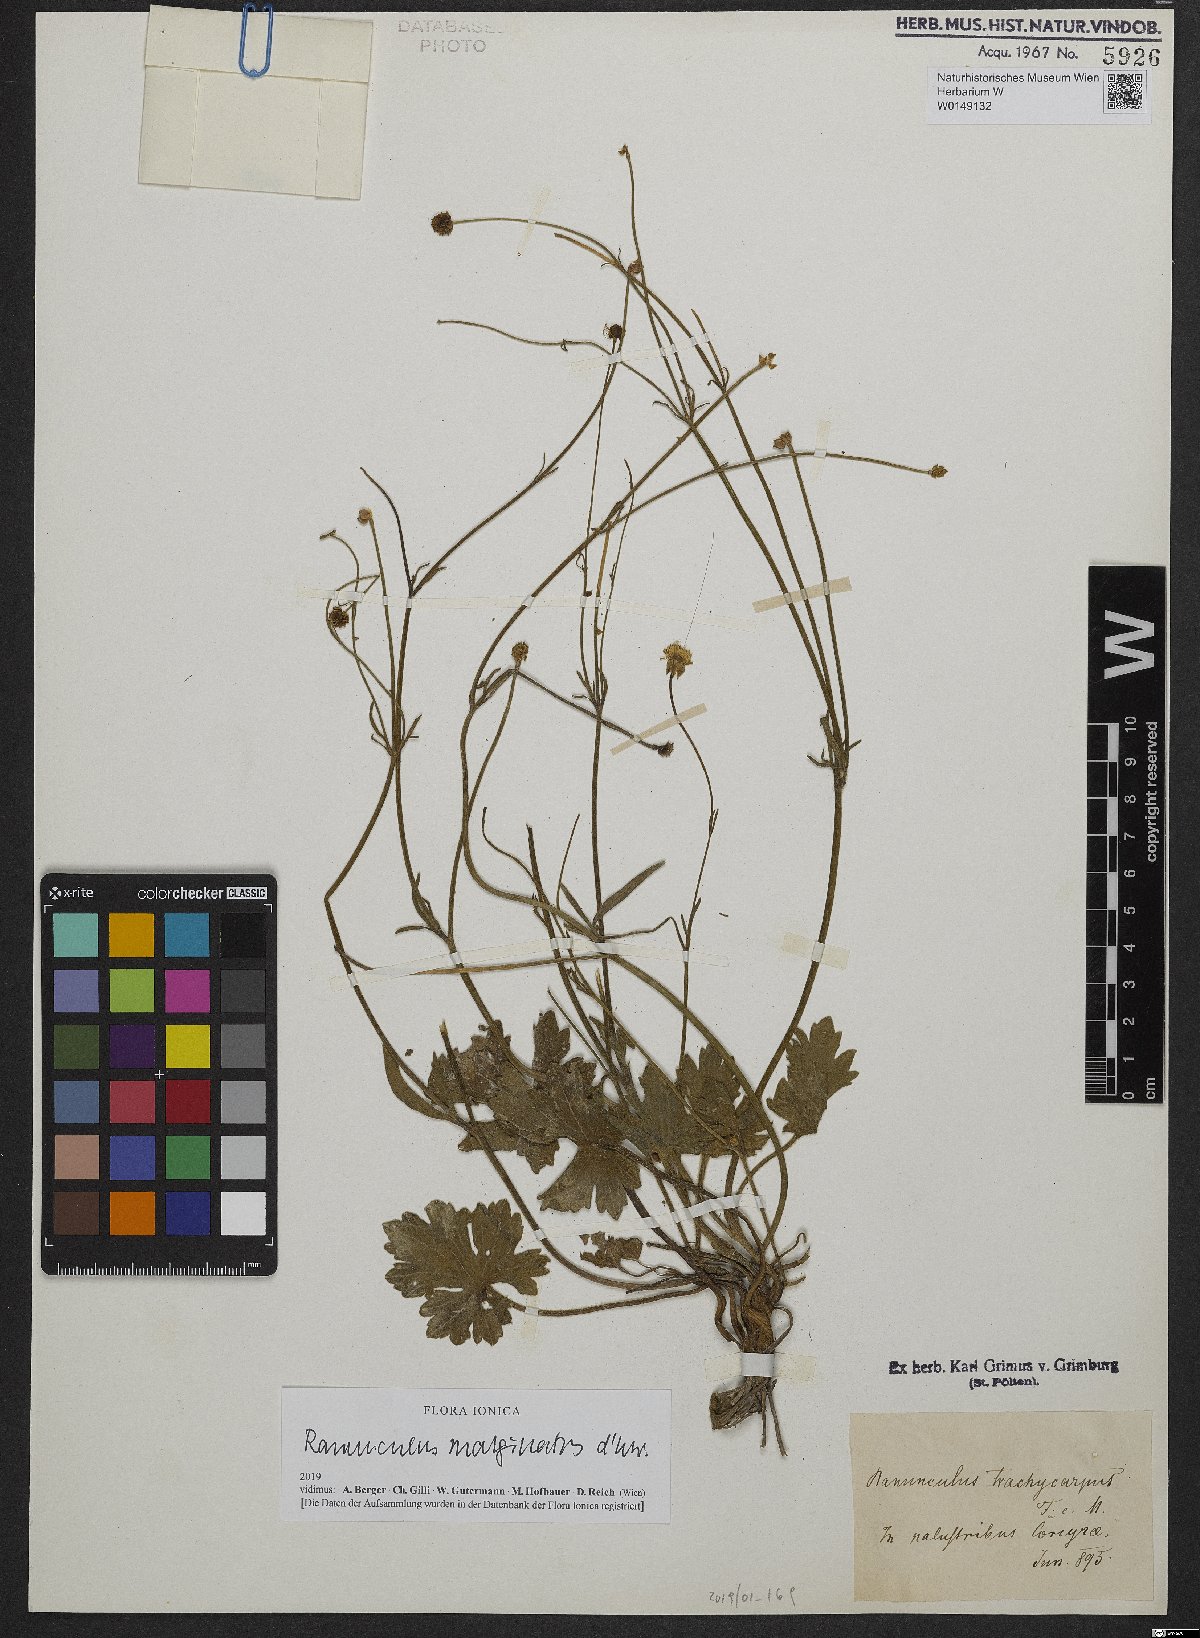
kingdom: Plantae
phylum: Tracheophyta
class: Magnoliopsida
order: Ranunculales
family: Ranunculaceae
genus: Ranunculus
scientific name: Ranunculus marginatus
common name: St. martin's buttercup
